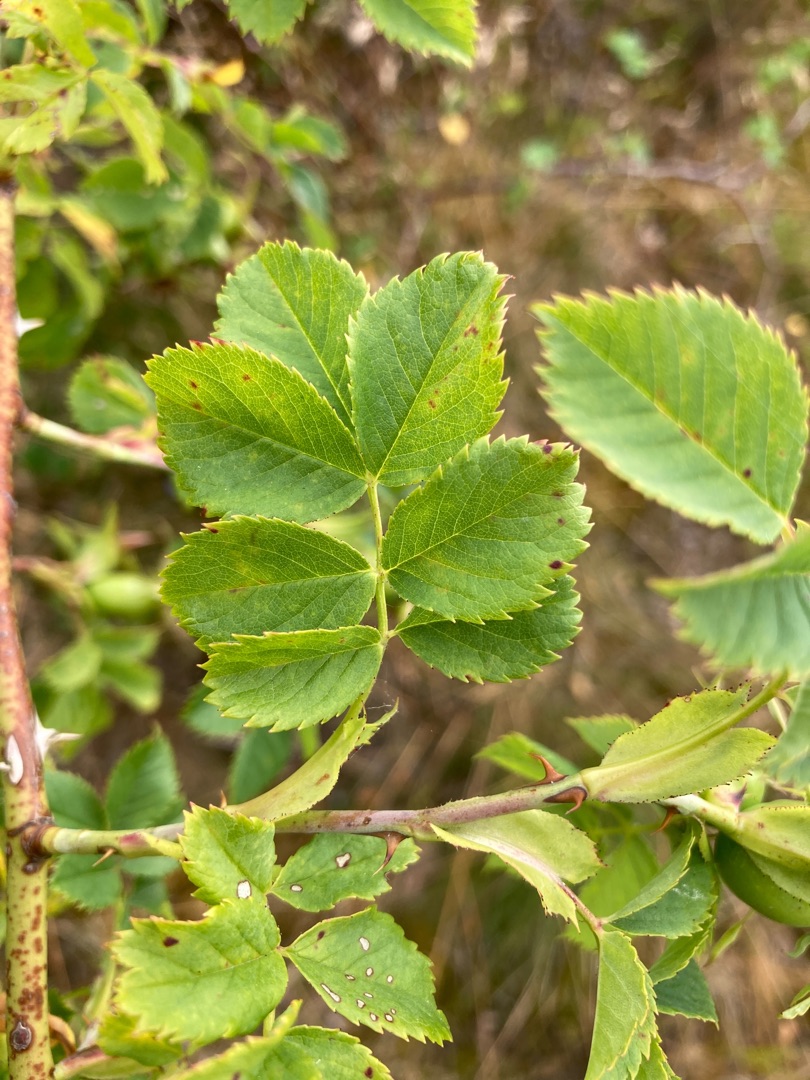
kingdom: Plantae
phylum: Tracheophyta
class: Magnoliopsida
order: Rosales
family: Rosaceae
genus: Rosa
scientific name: Rosa dumalis
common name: Blågrøn rose (underart)
